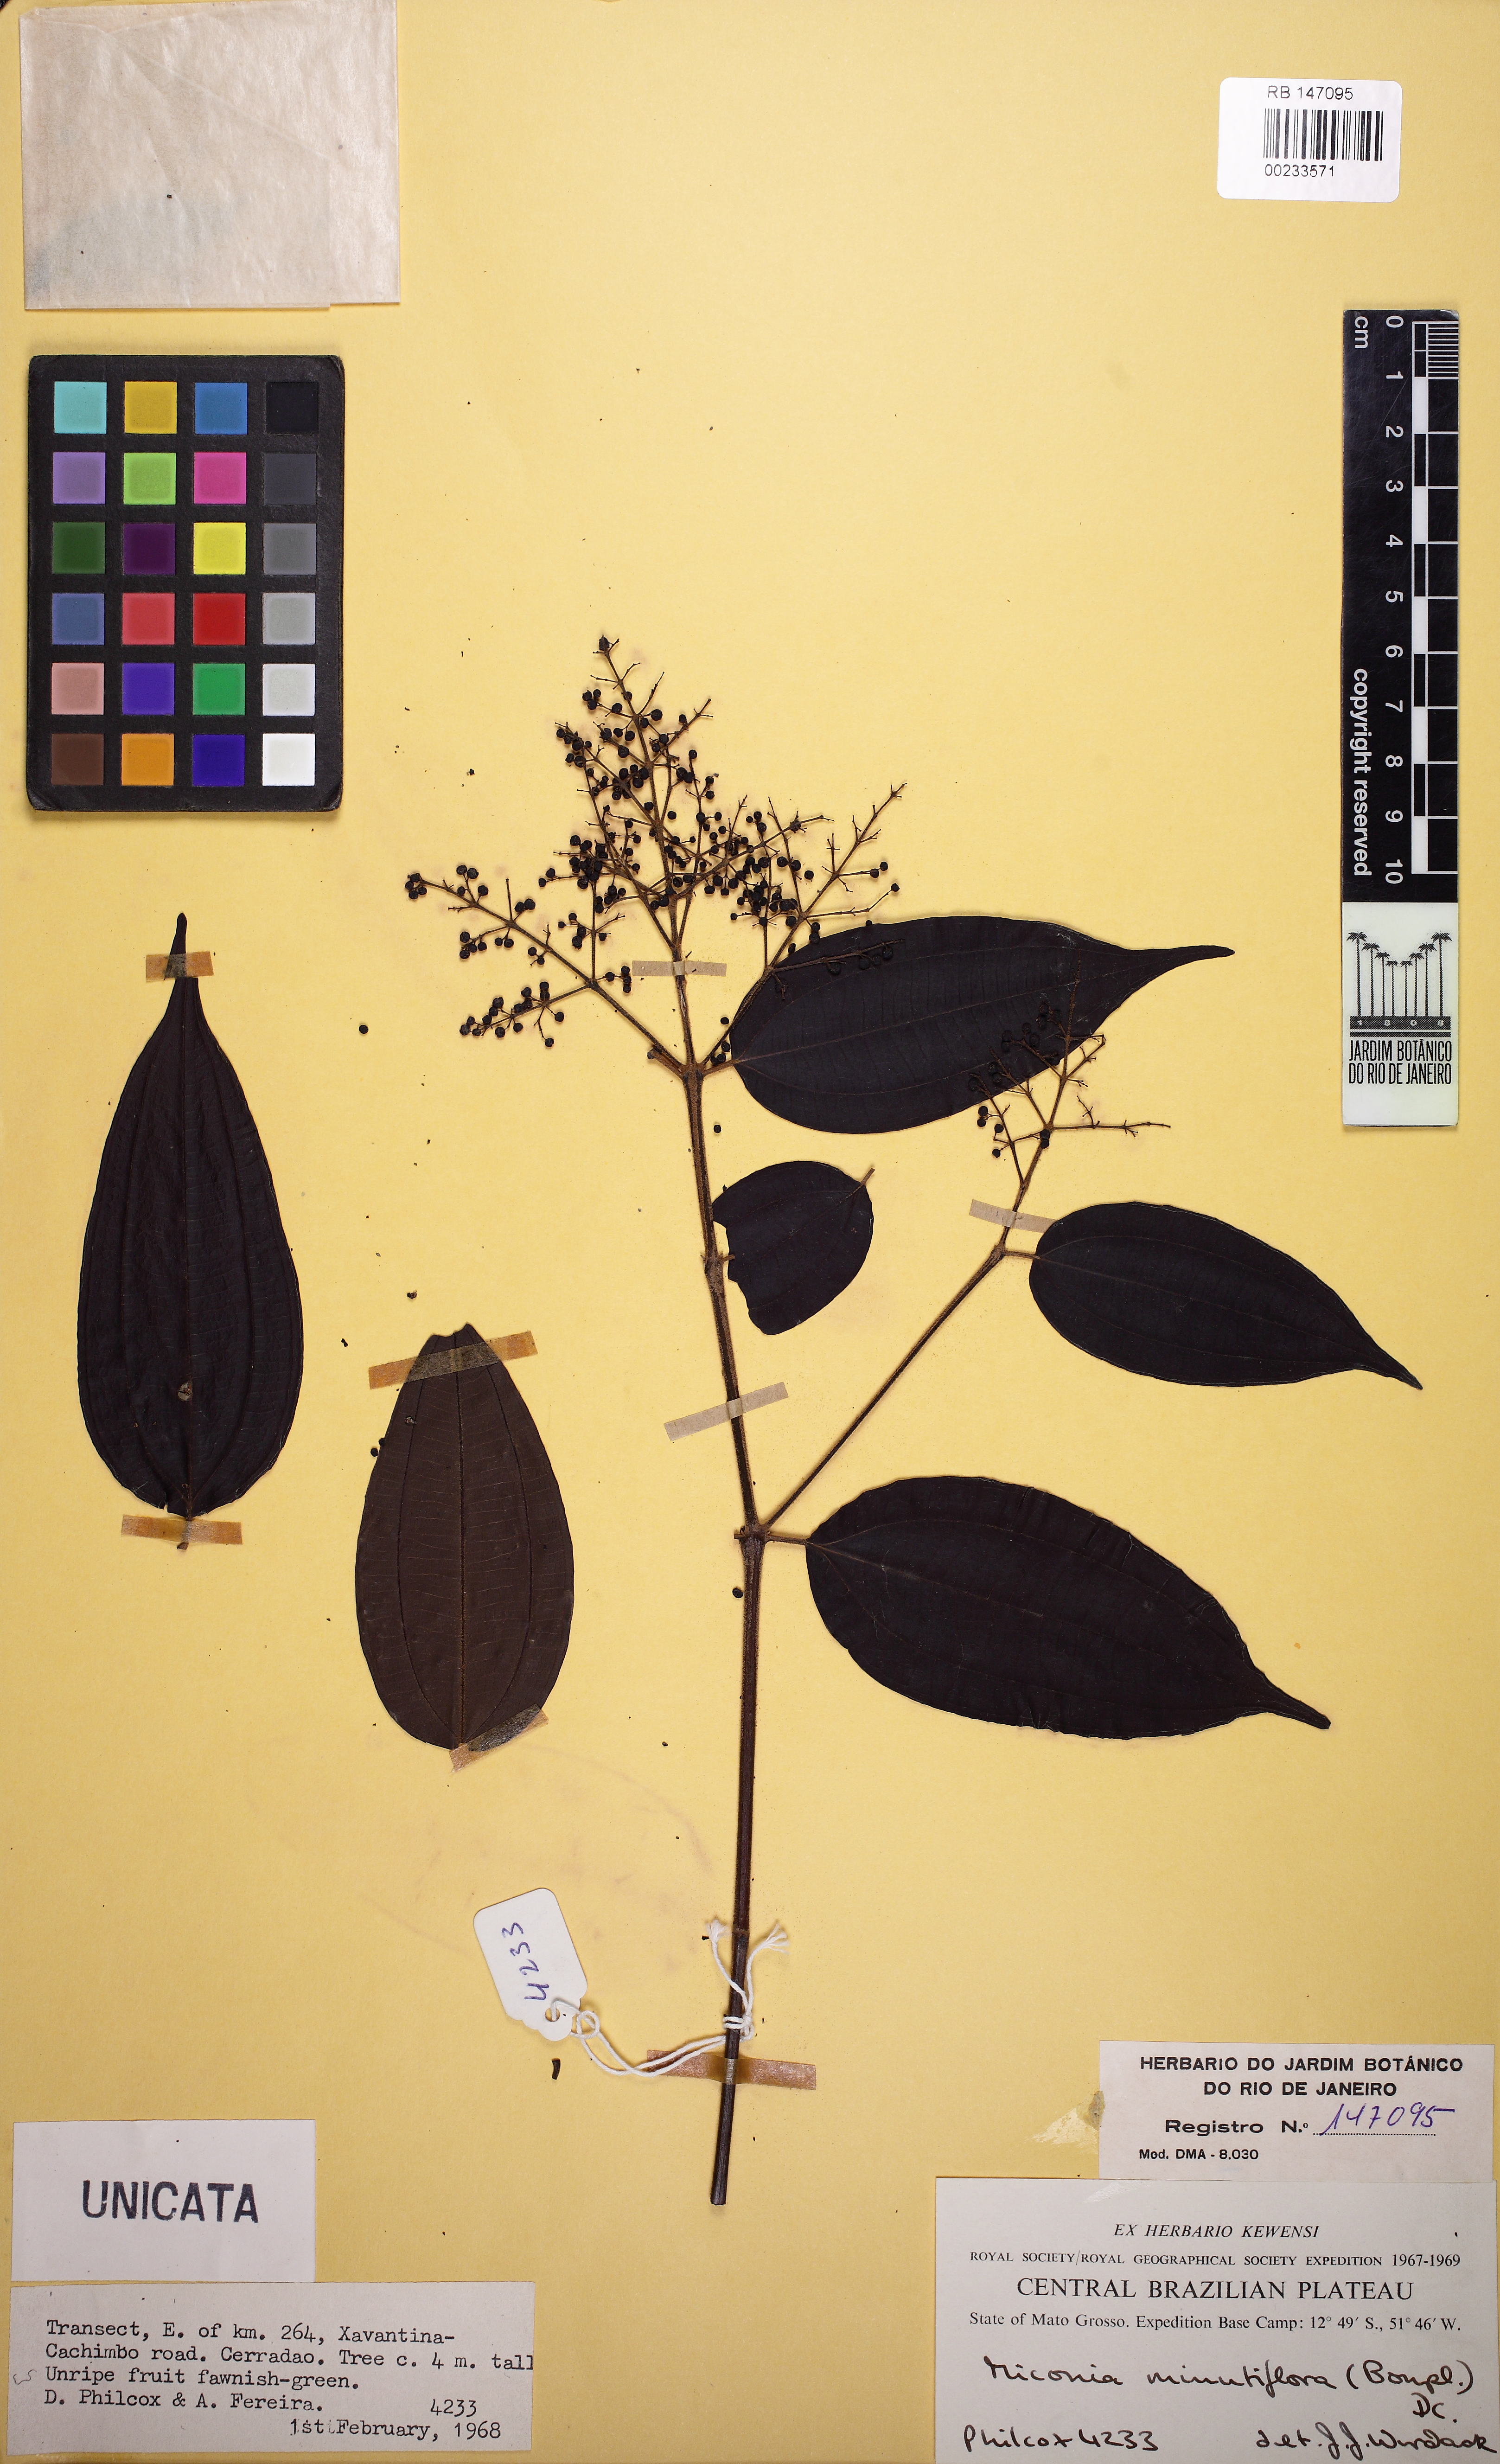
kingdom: Plantae
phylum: Tracheophyta
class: Magnoliopsida
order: Myrtales
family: Melastomataceae
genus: Miconia
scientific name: Miconia minutiflora
